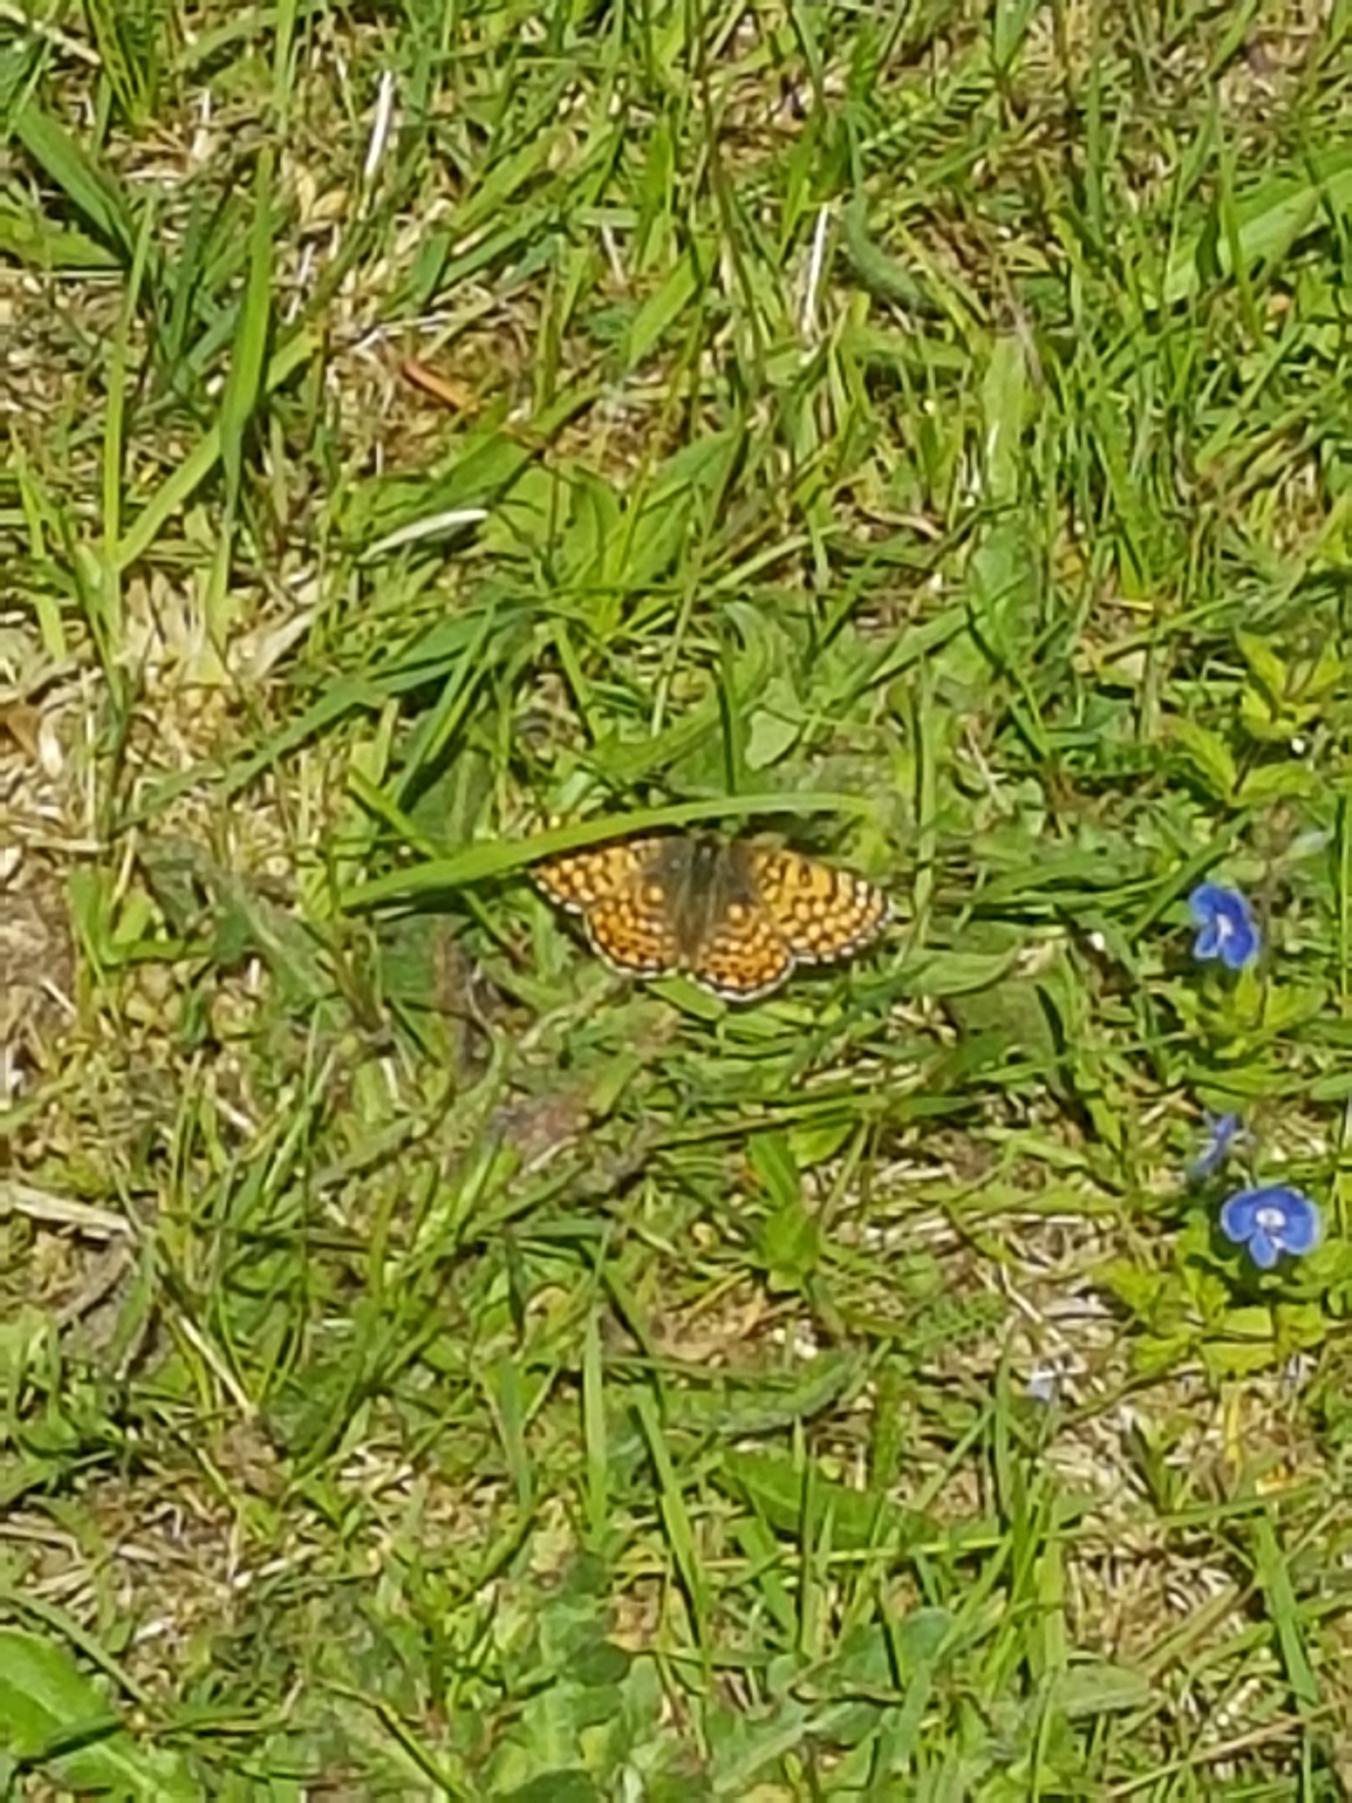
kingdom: Animalia
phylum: Arthropoda
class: Insecta
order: Lepidoptera
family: Nymphalidae
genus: Melitaea
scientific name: Melitaea cinxia
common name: Okkergul pletvinge
